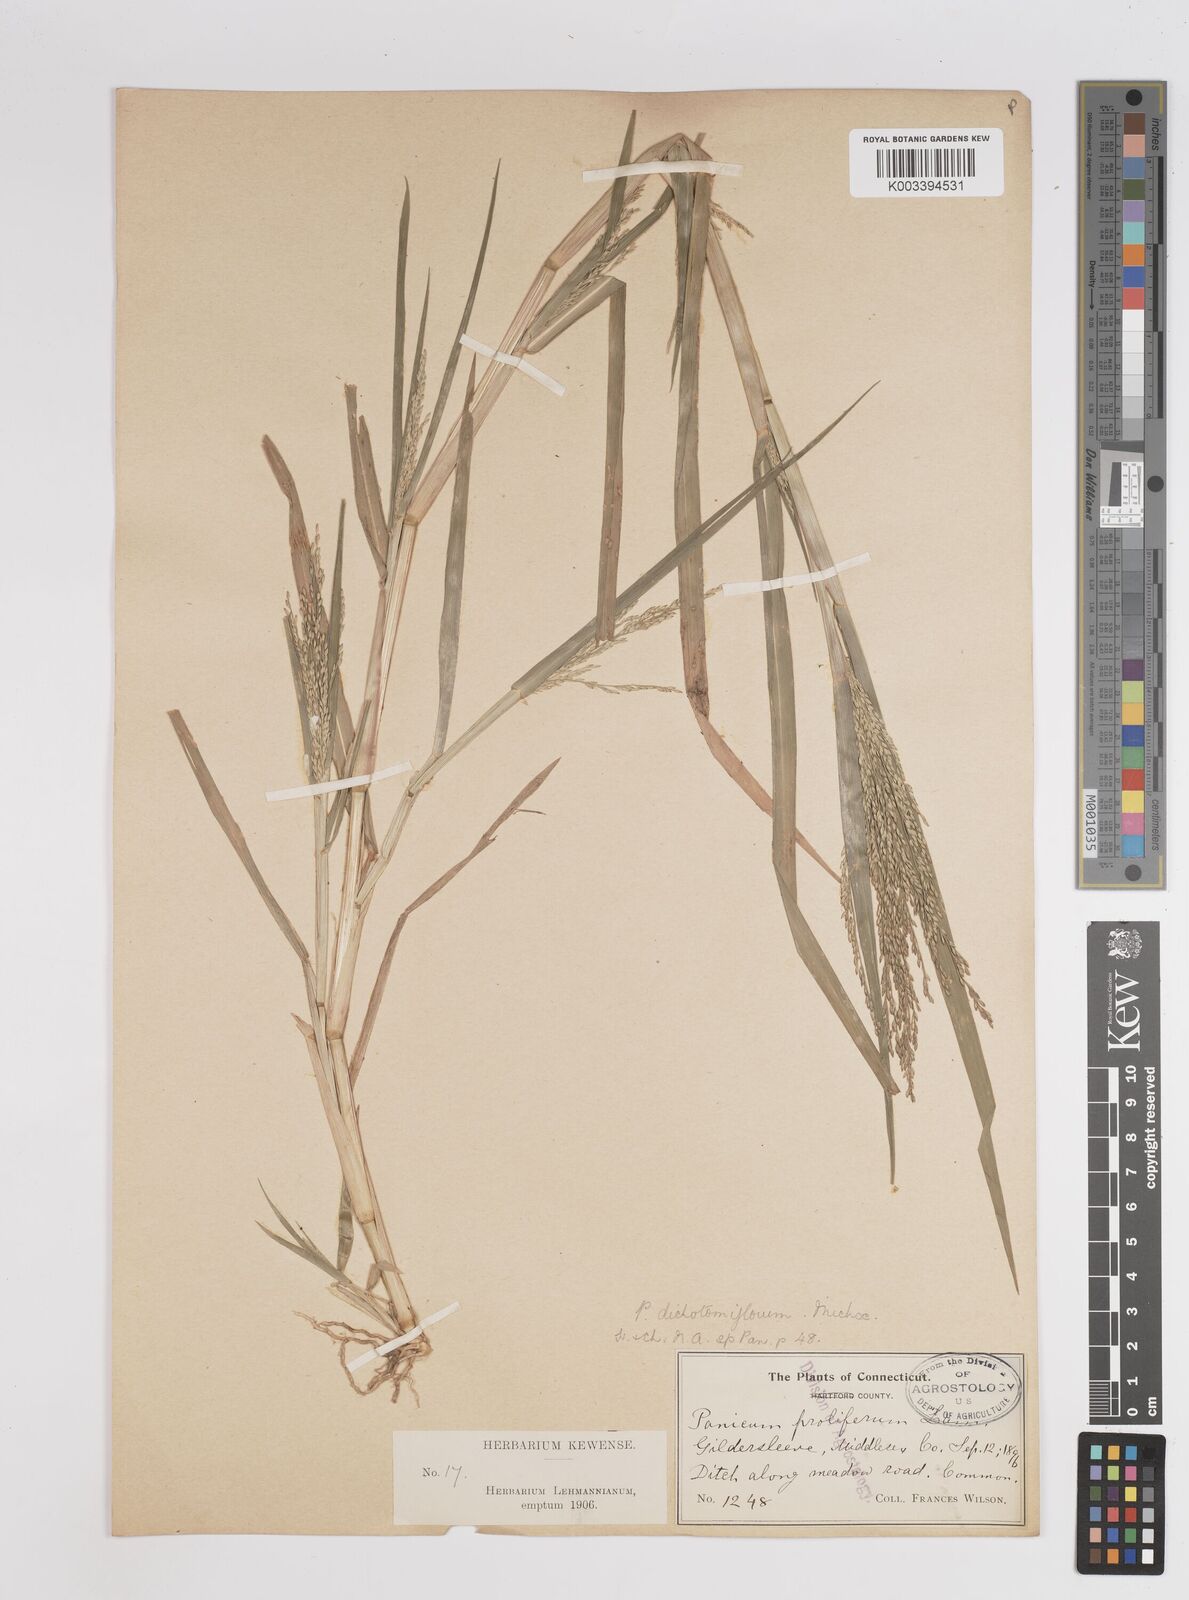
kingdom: Plantae
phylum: Tracheophyta
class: Liliopsida
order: Poales
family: Poaceae
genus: Panicum
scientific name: Panicum dichotomiflorum
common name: Autumn millet
